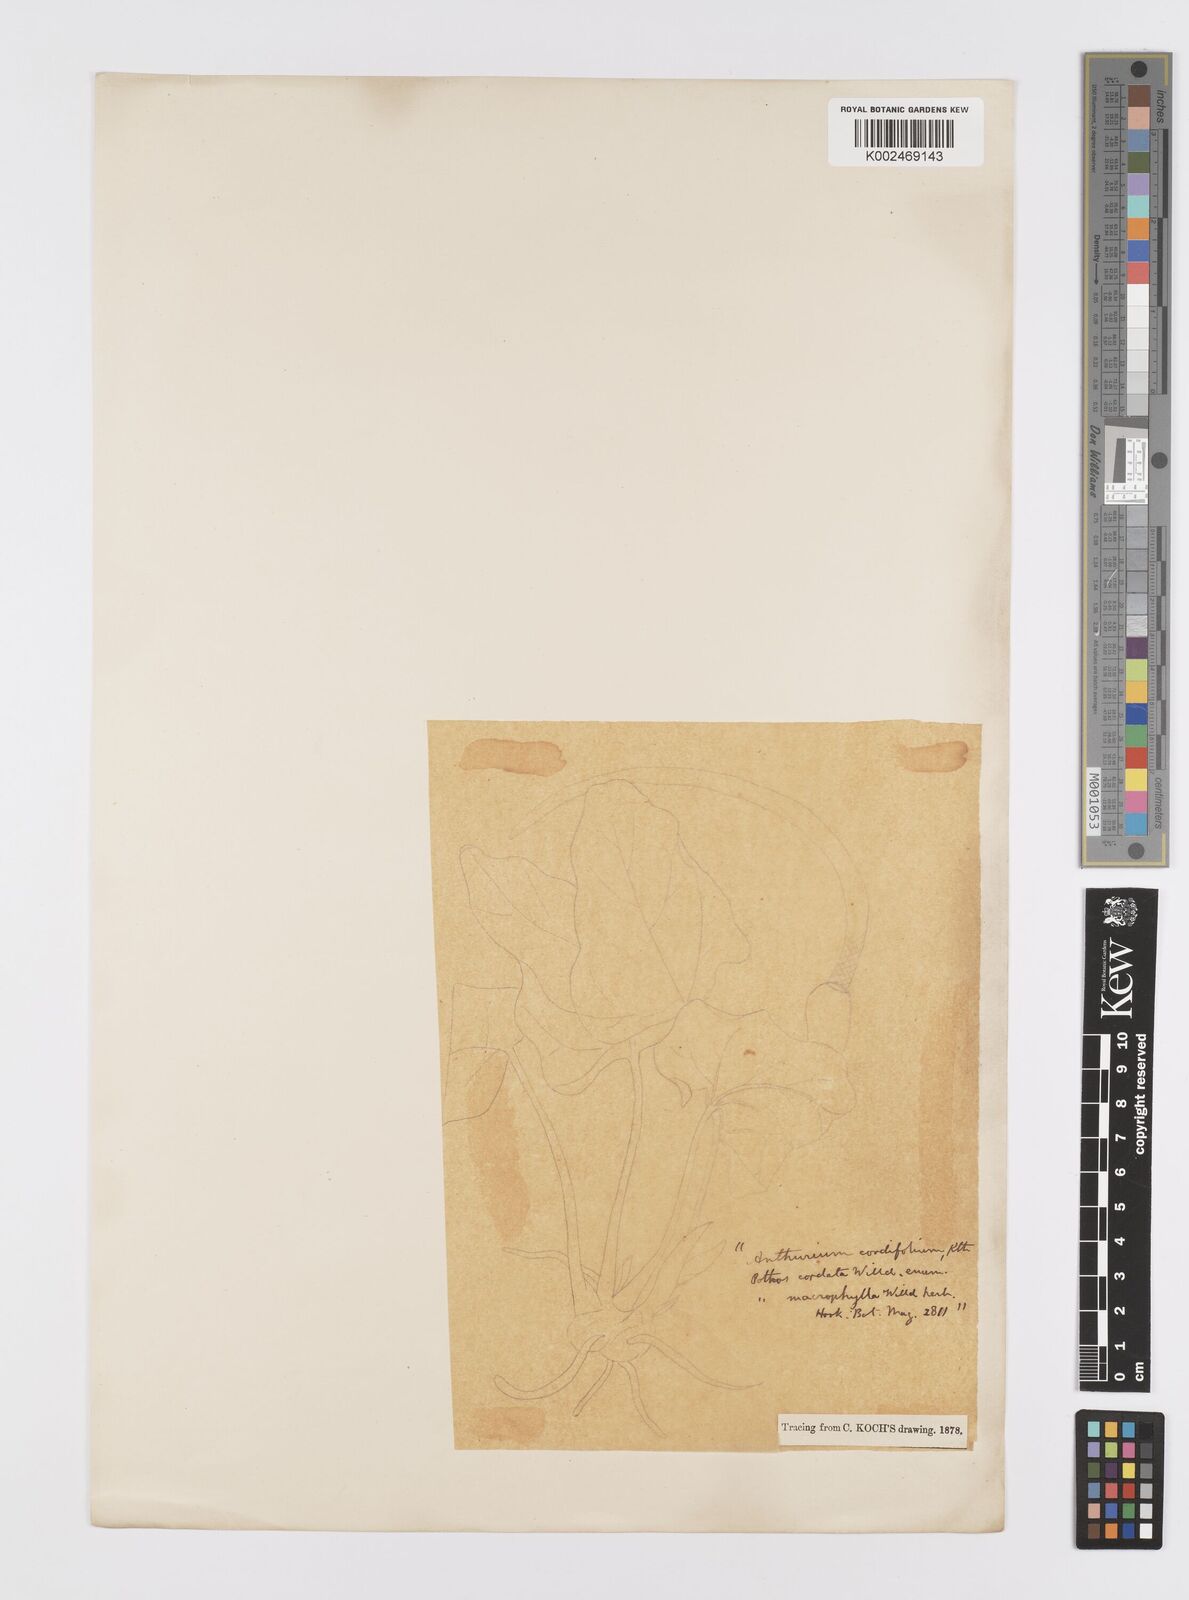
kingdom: Plantae
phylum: Tracheophyta
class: Liliopsida
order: Alismatales
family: Araceae
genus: Anthurium
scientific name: Anthurium grandifolium
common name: Monkey tail
